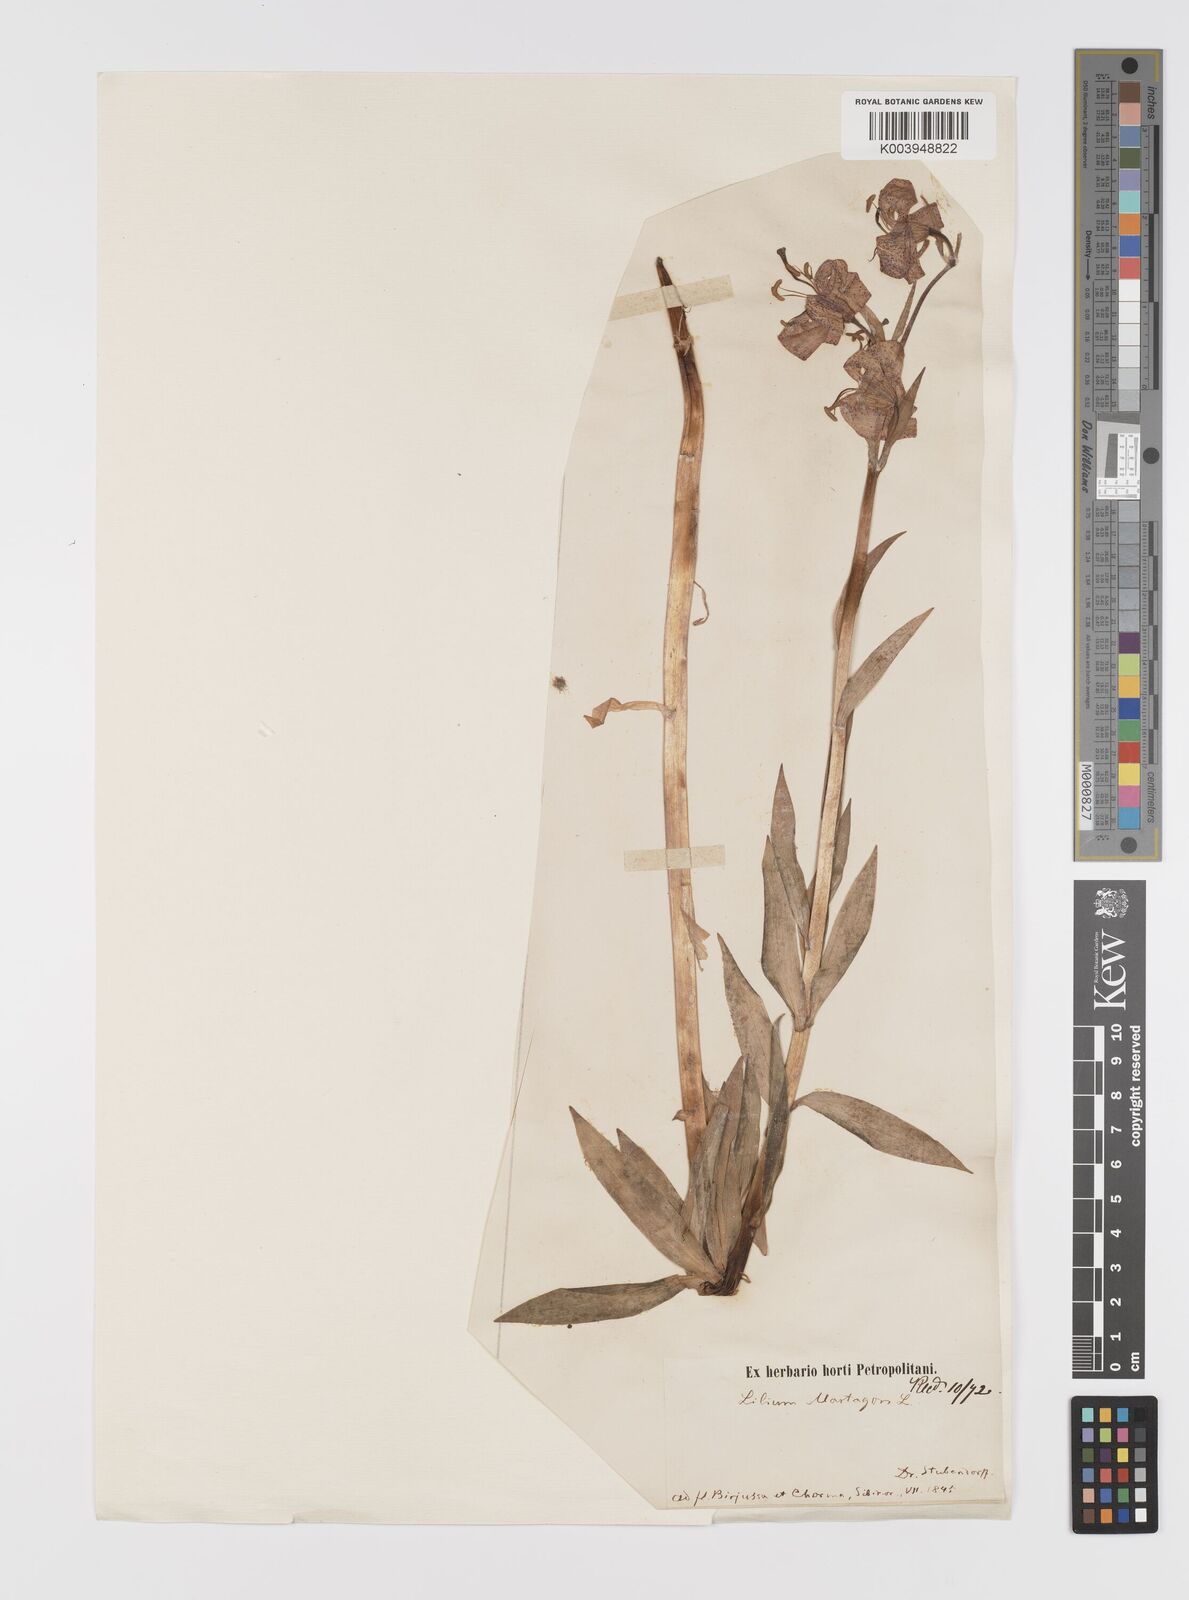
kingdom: Plantae
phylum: Tracheophyta
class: Liliopsida
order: Liliales
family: Liliaceae
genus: Lilium
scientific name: Lilium martagon
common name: Martagon lily
